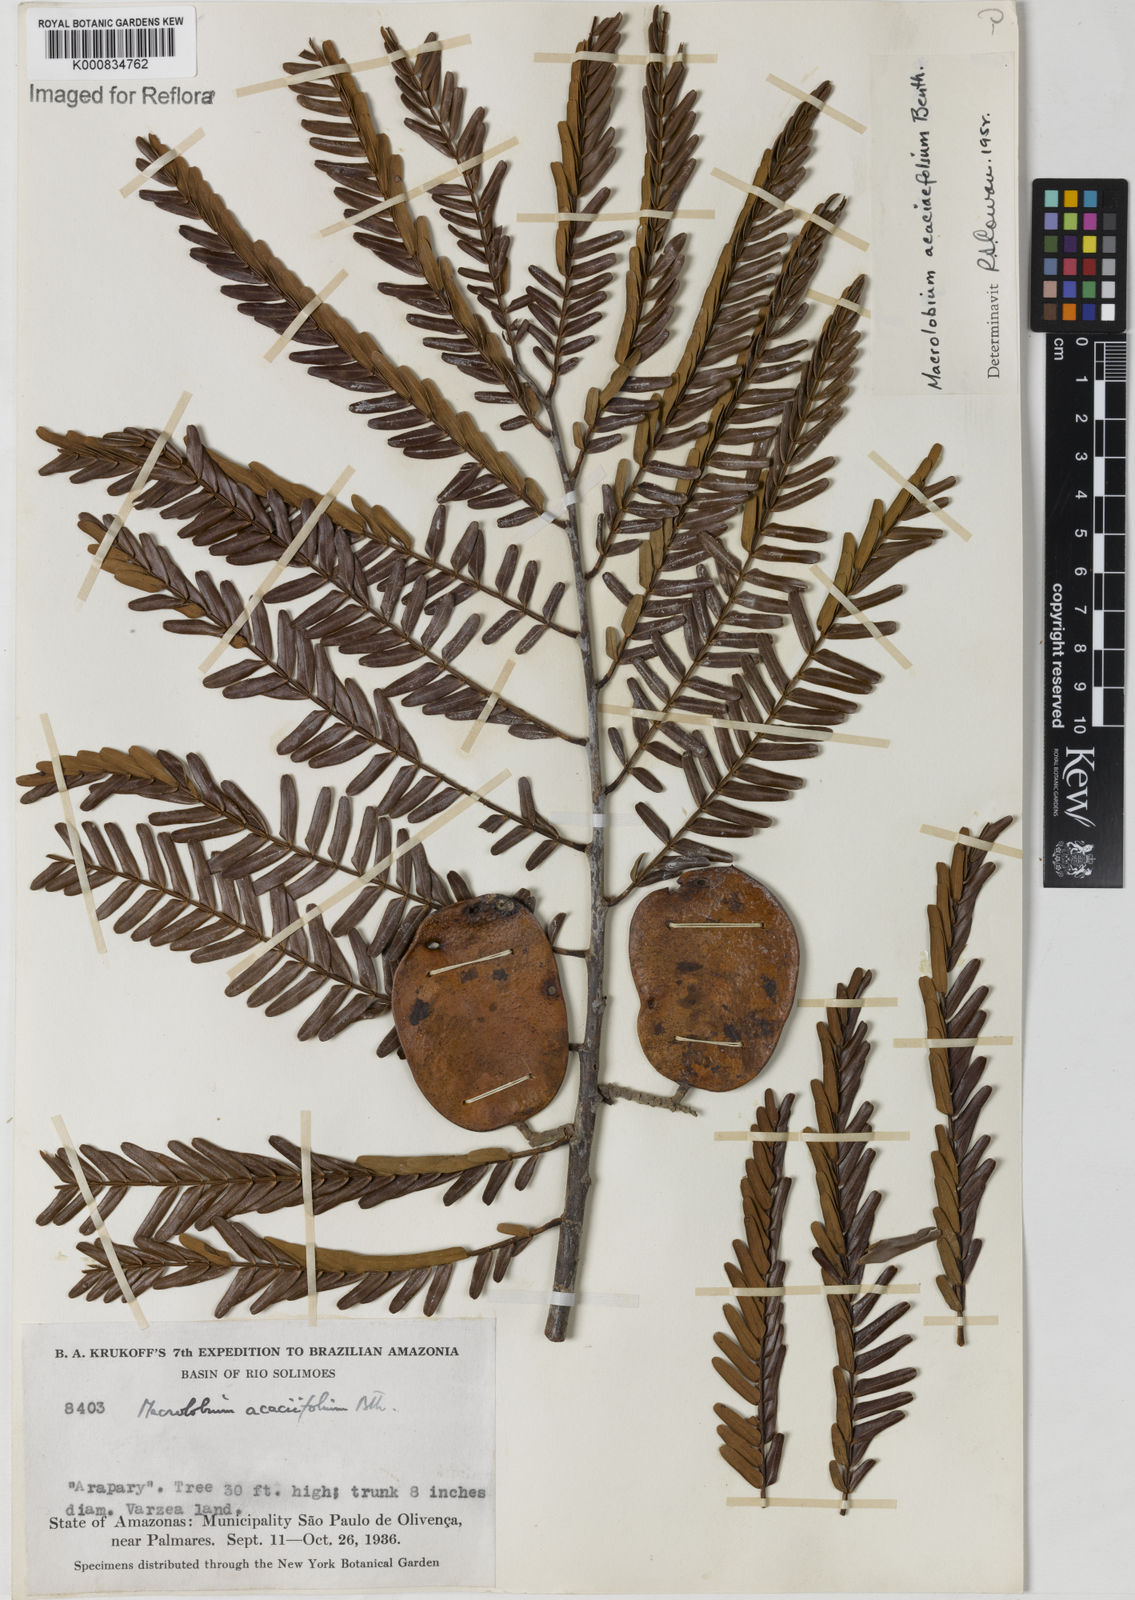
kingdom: Plantae
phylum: Tracheophyta
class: Magnoliopsida
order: Fabales
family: Fabaceae
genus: Macrolobium
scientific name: Macrolobium acaciifolium
